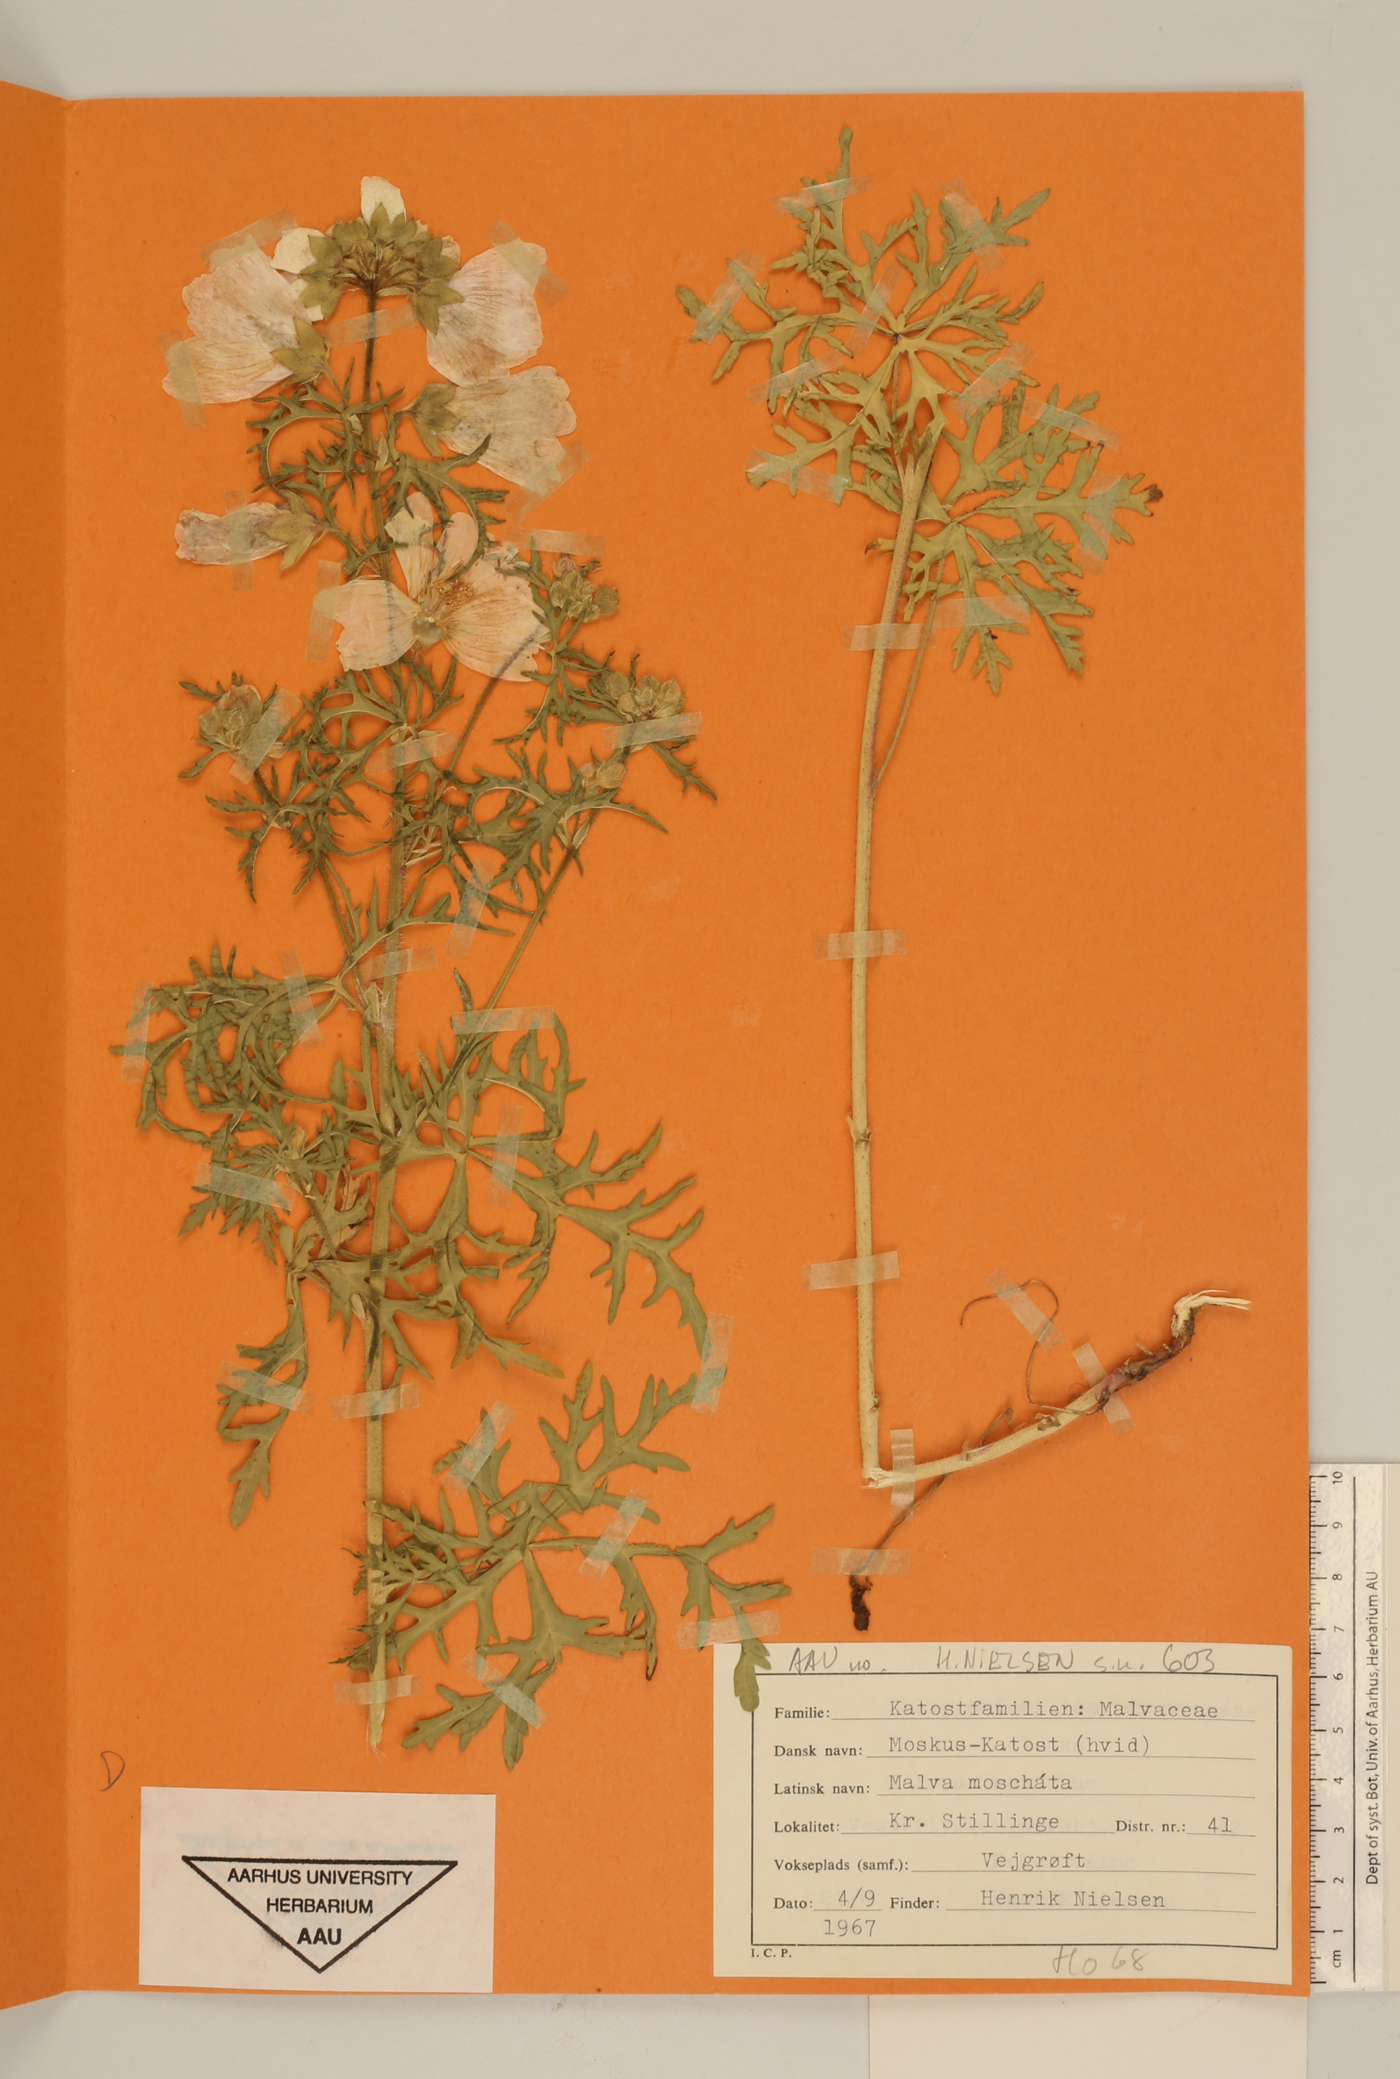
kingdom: Plantae
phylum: Tracheophyta
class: Magnoliopsida
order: Malvales
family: Malvaceae
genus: Malva
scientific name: Malva moschata
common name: Musk mallow
